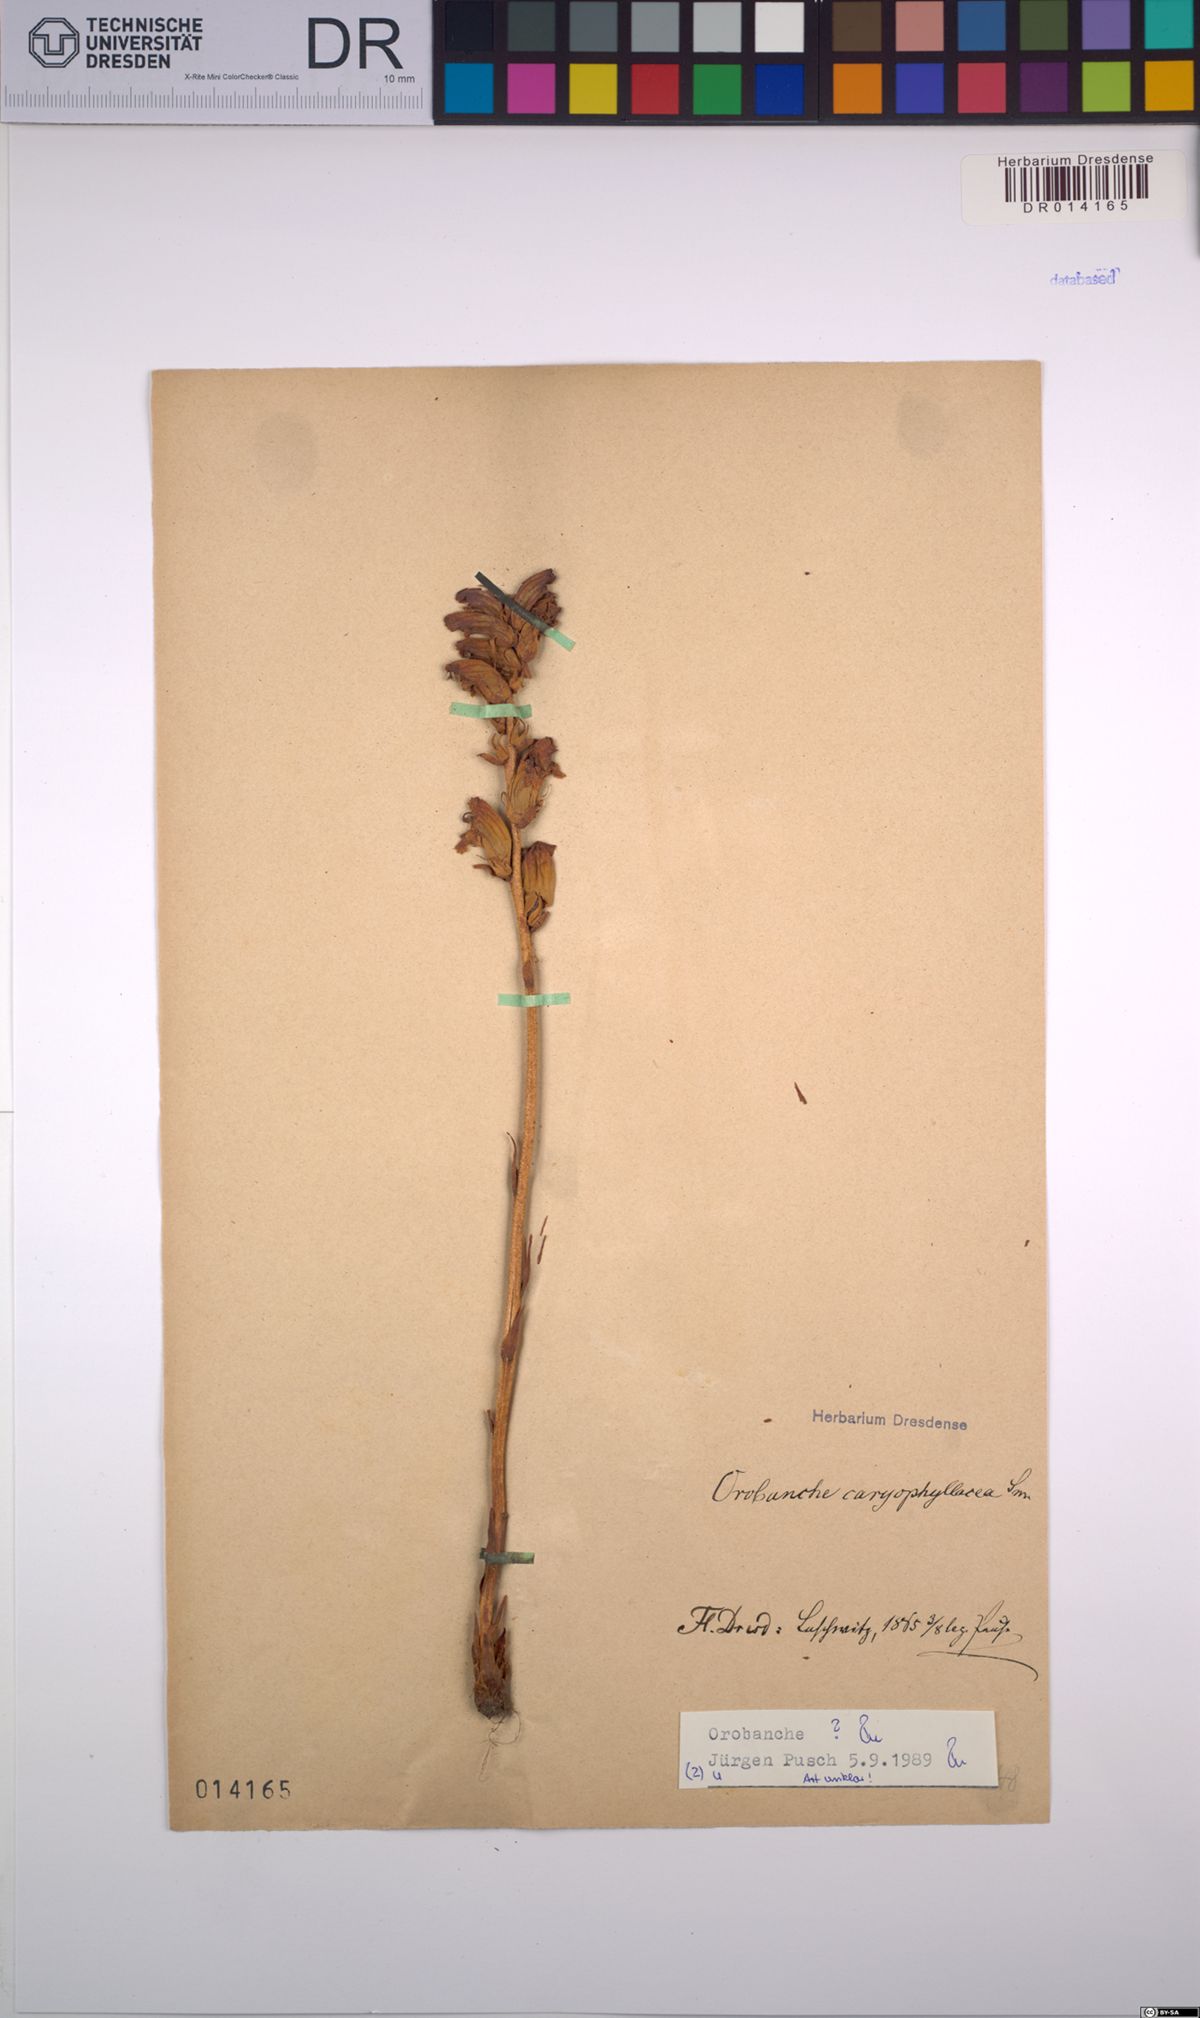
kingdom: Plantae
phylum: Tracheophyta
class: Magnoliopsida
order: Lamiales
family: Orobanchaceae
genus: Orobanche
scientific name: Orobanche
